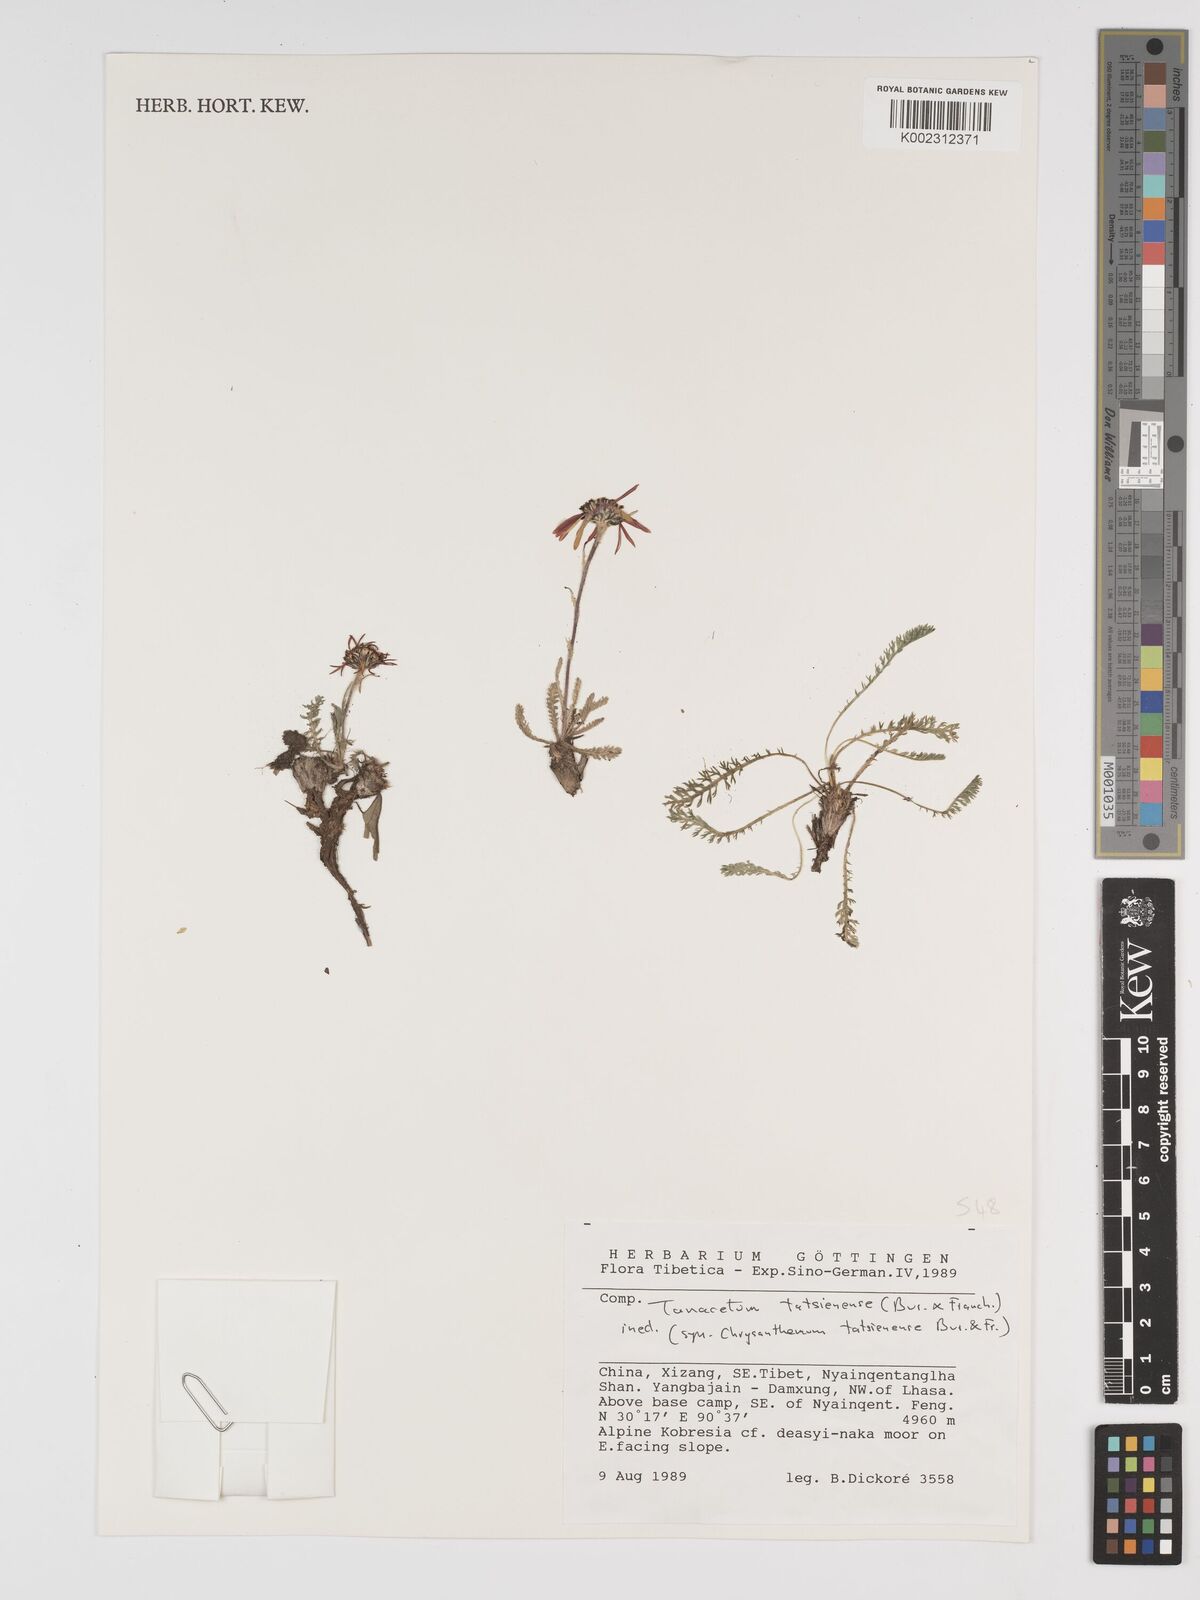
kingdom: Plantae
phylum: Tracheophyta
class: Magnoliopsida
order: Asterales
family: Asteraceae
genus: Tanacetum
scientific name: Tanacetum tatsienense
